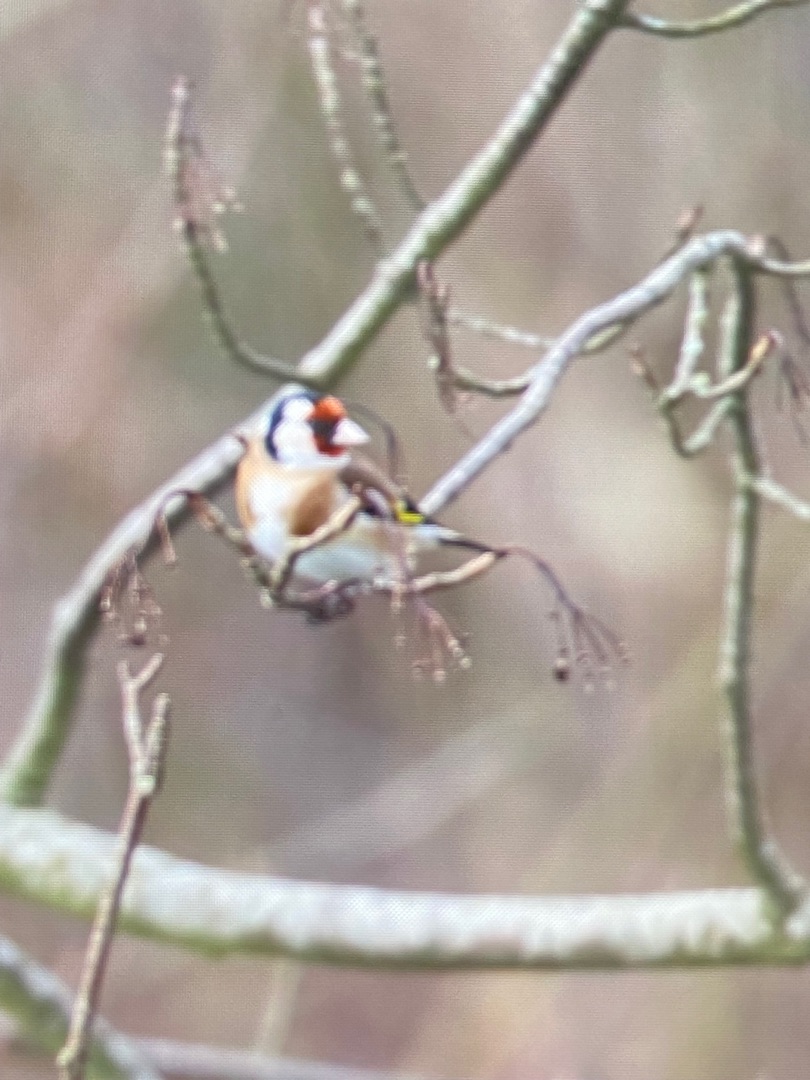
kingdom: Animalia
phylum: Chordata
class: Aves
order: Passeriformes
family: Fringillidae
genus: Carduelis
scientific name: Carduelis carduelis
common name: Stillits
